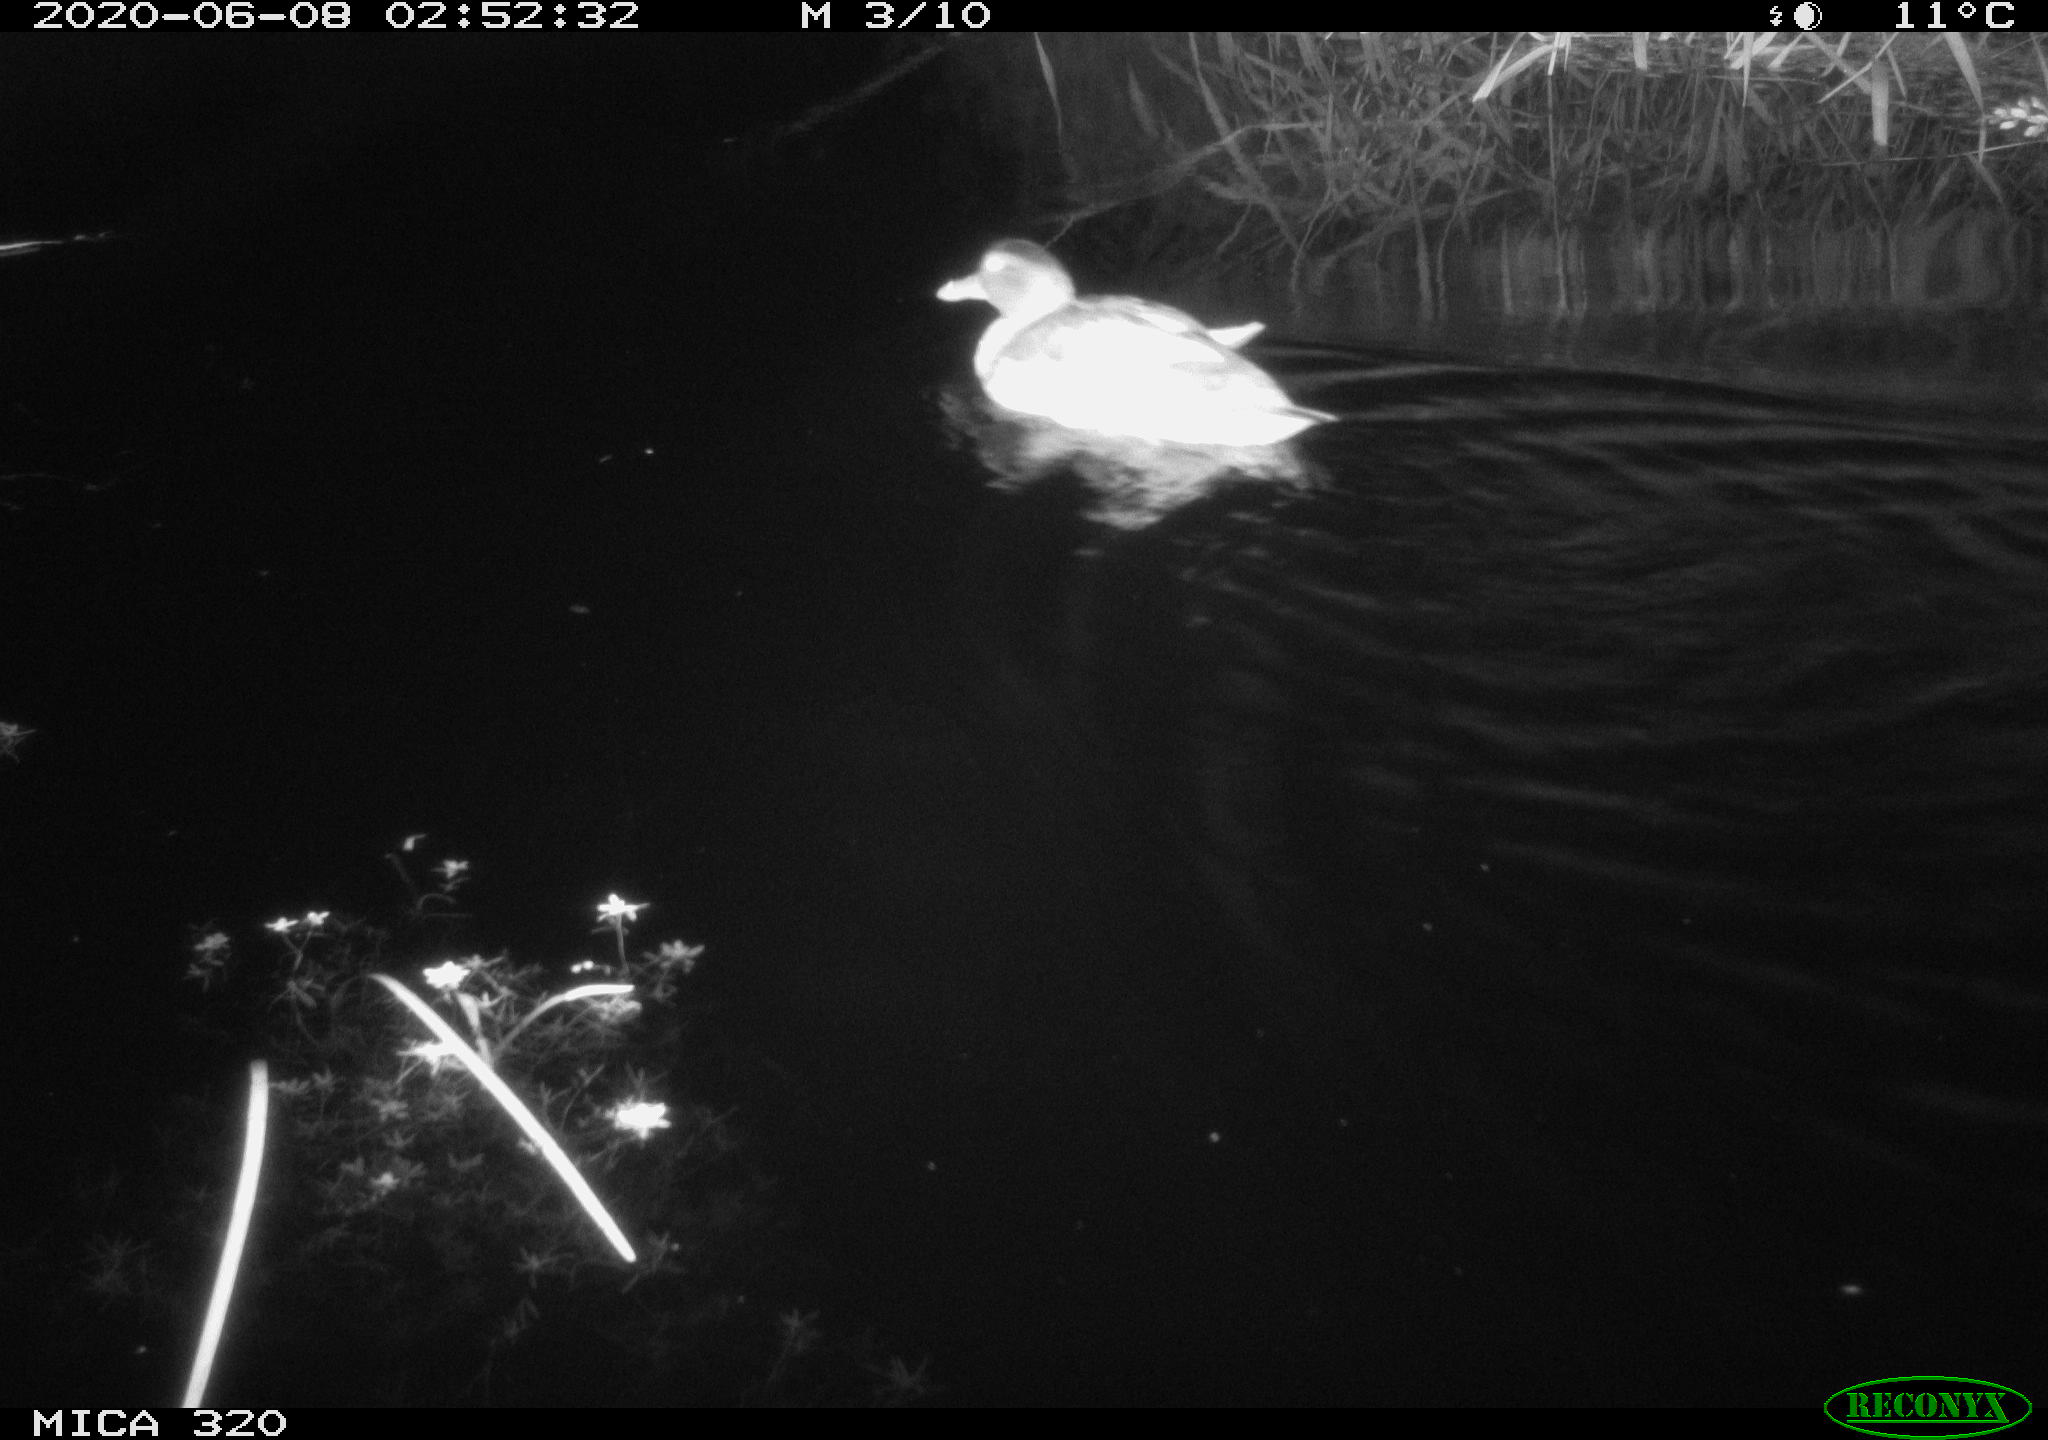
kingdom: Animalia
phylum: Chordata
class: Aves
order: Anseriformes
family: Anatidae
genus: Anas
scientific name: Anas platyrhynchos
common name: Mallard
